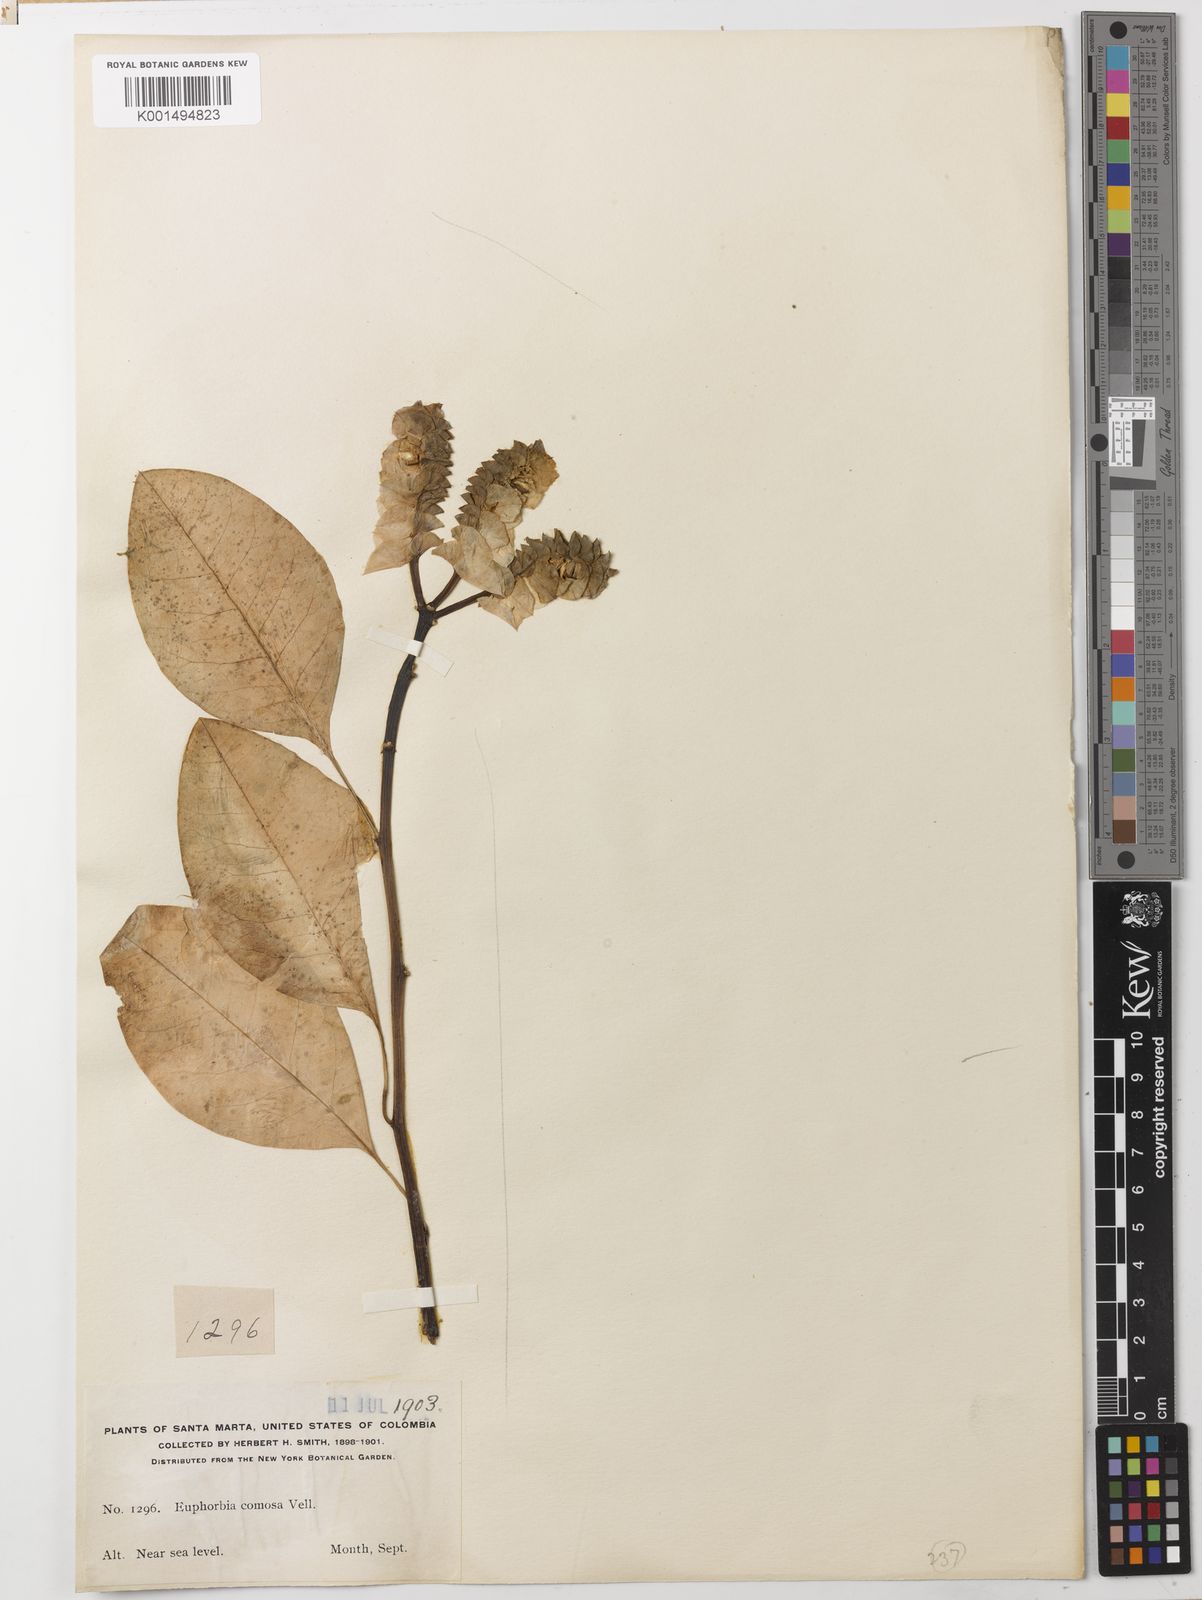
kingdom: Plantae
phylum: Tracheophyta
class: Magnoliopsida
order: Malpighiales
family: Euphorbiaceae
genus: Euphorbia
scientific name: Euphorbia comosa
